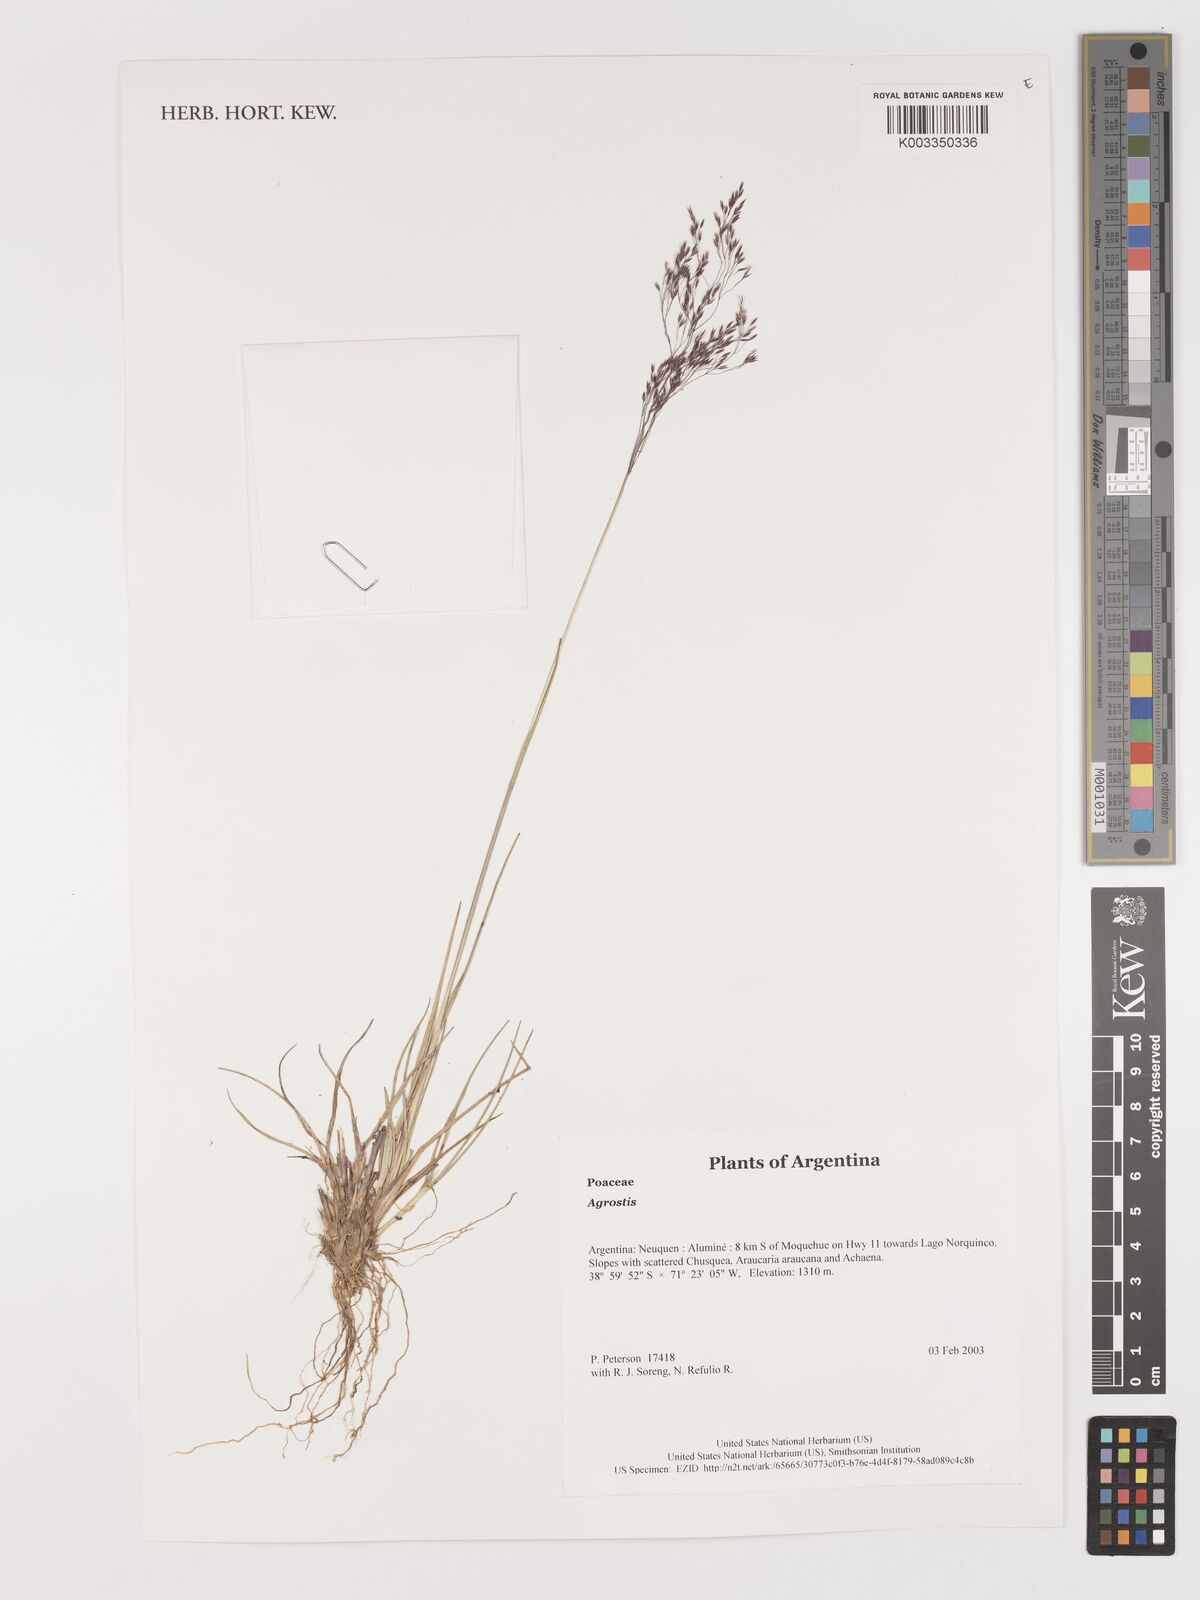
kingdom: Plantae
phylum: Tracheophyta
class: Liliopsida
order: Poales
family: Poaceae
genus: Agrostis
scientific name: Agrostis
